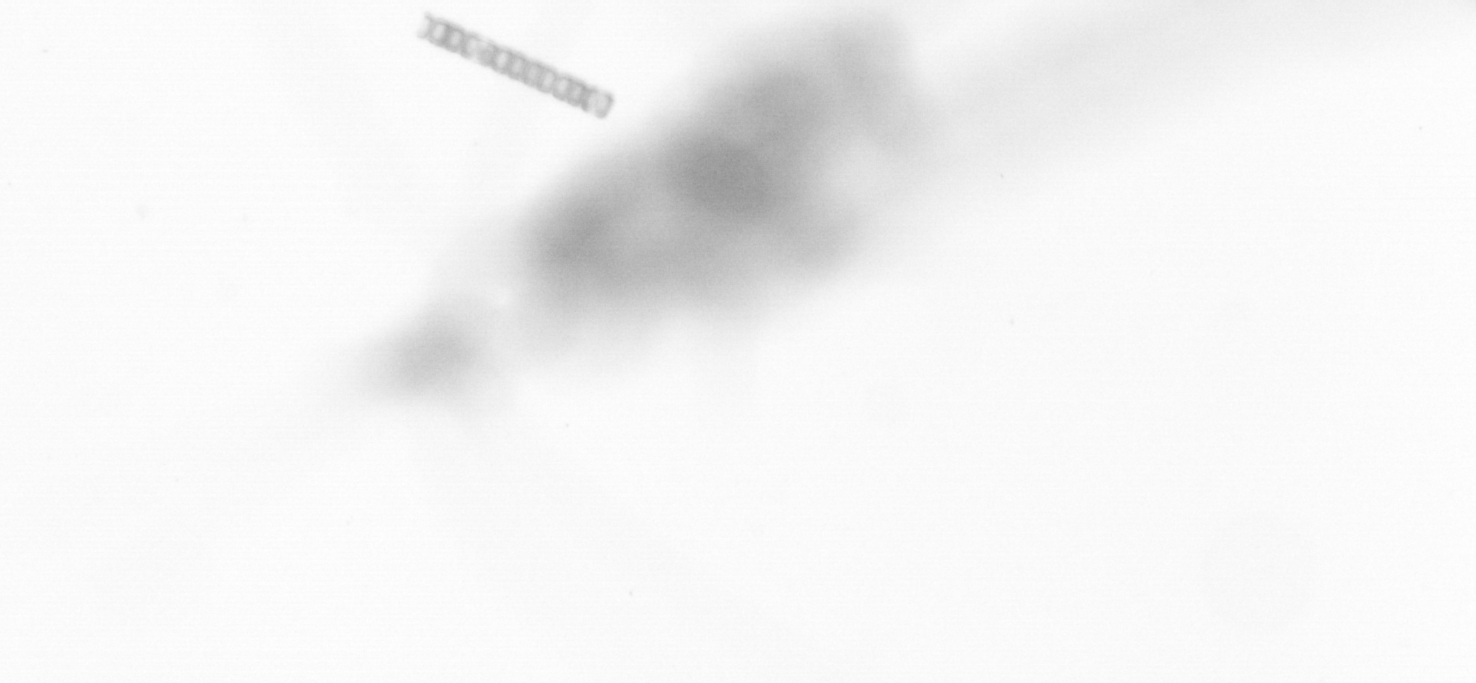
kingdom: Chromista
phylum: Ochrophyta
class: Bacillariophyceae
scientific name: Bacillariophyceae
